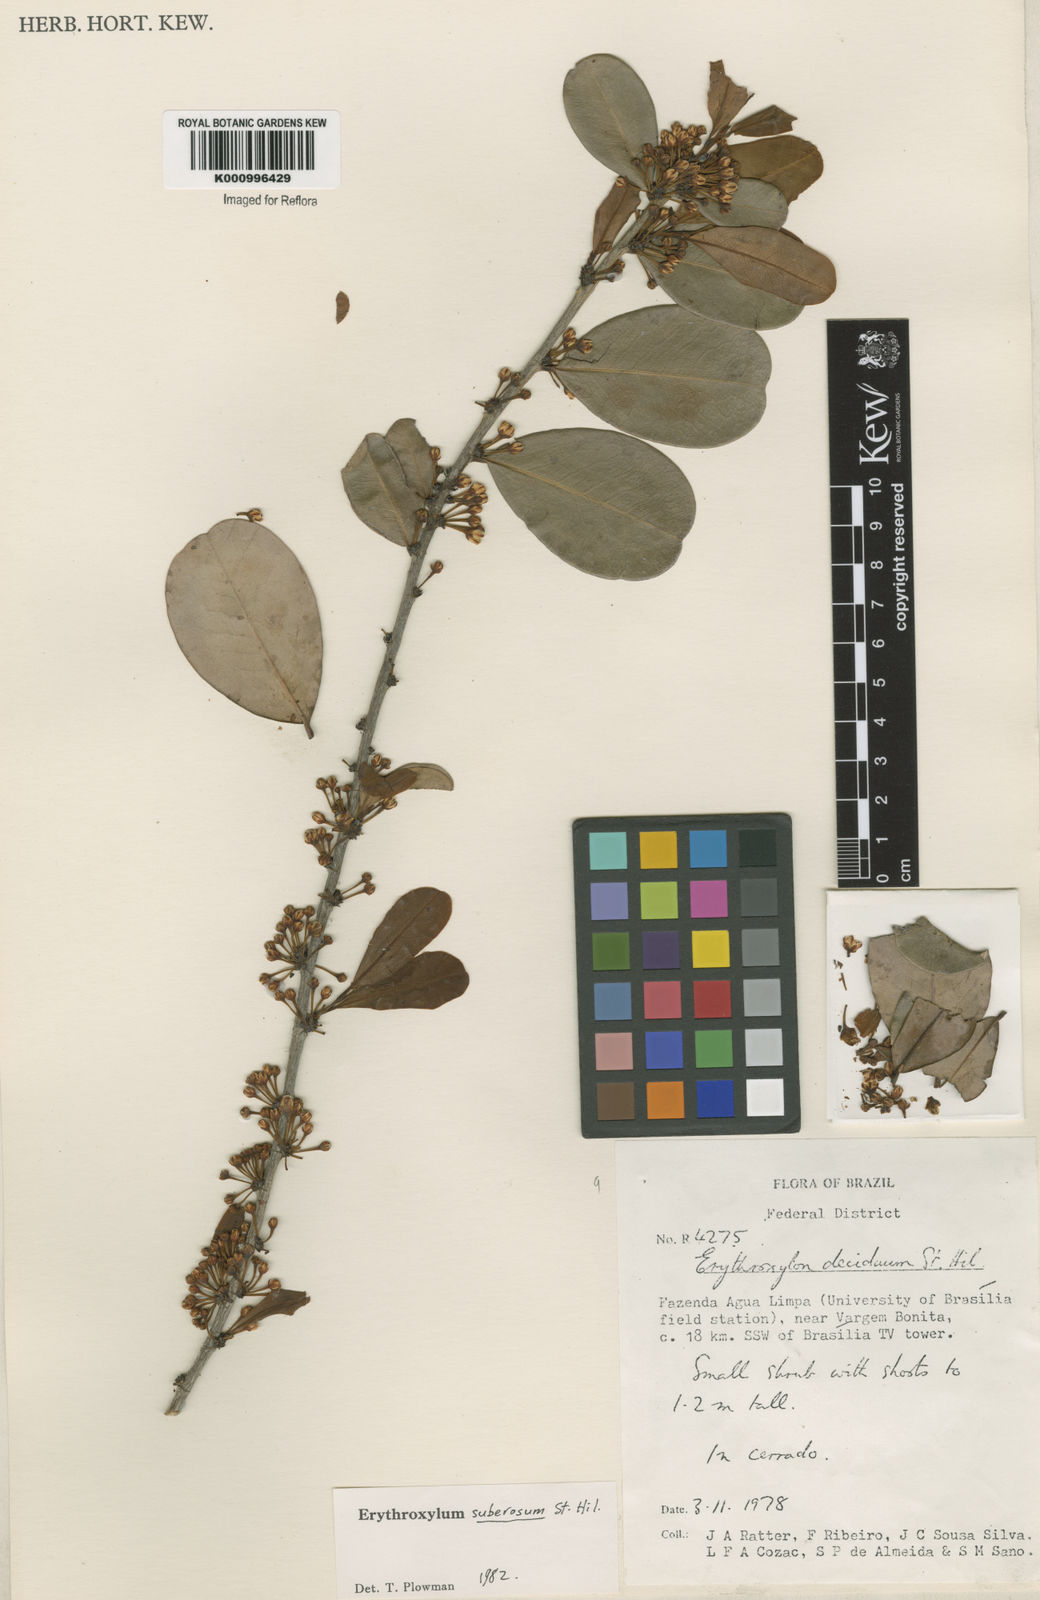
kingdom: Plantae
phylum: Tracheophyta
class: Magnoliopsida
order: Malpighiales
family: Erythroxylaceae
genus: Erythroxylum
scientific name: Erythroxylum suberosum
